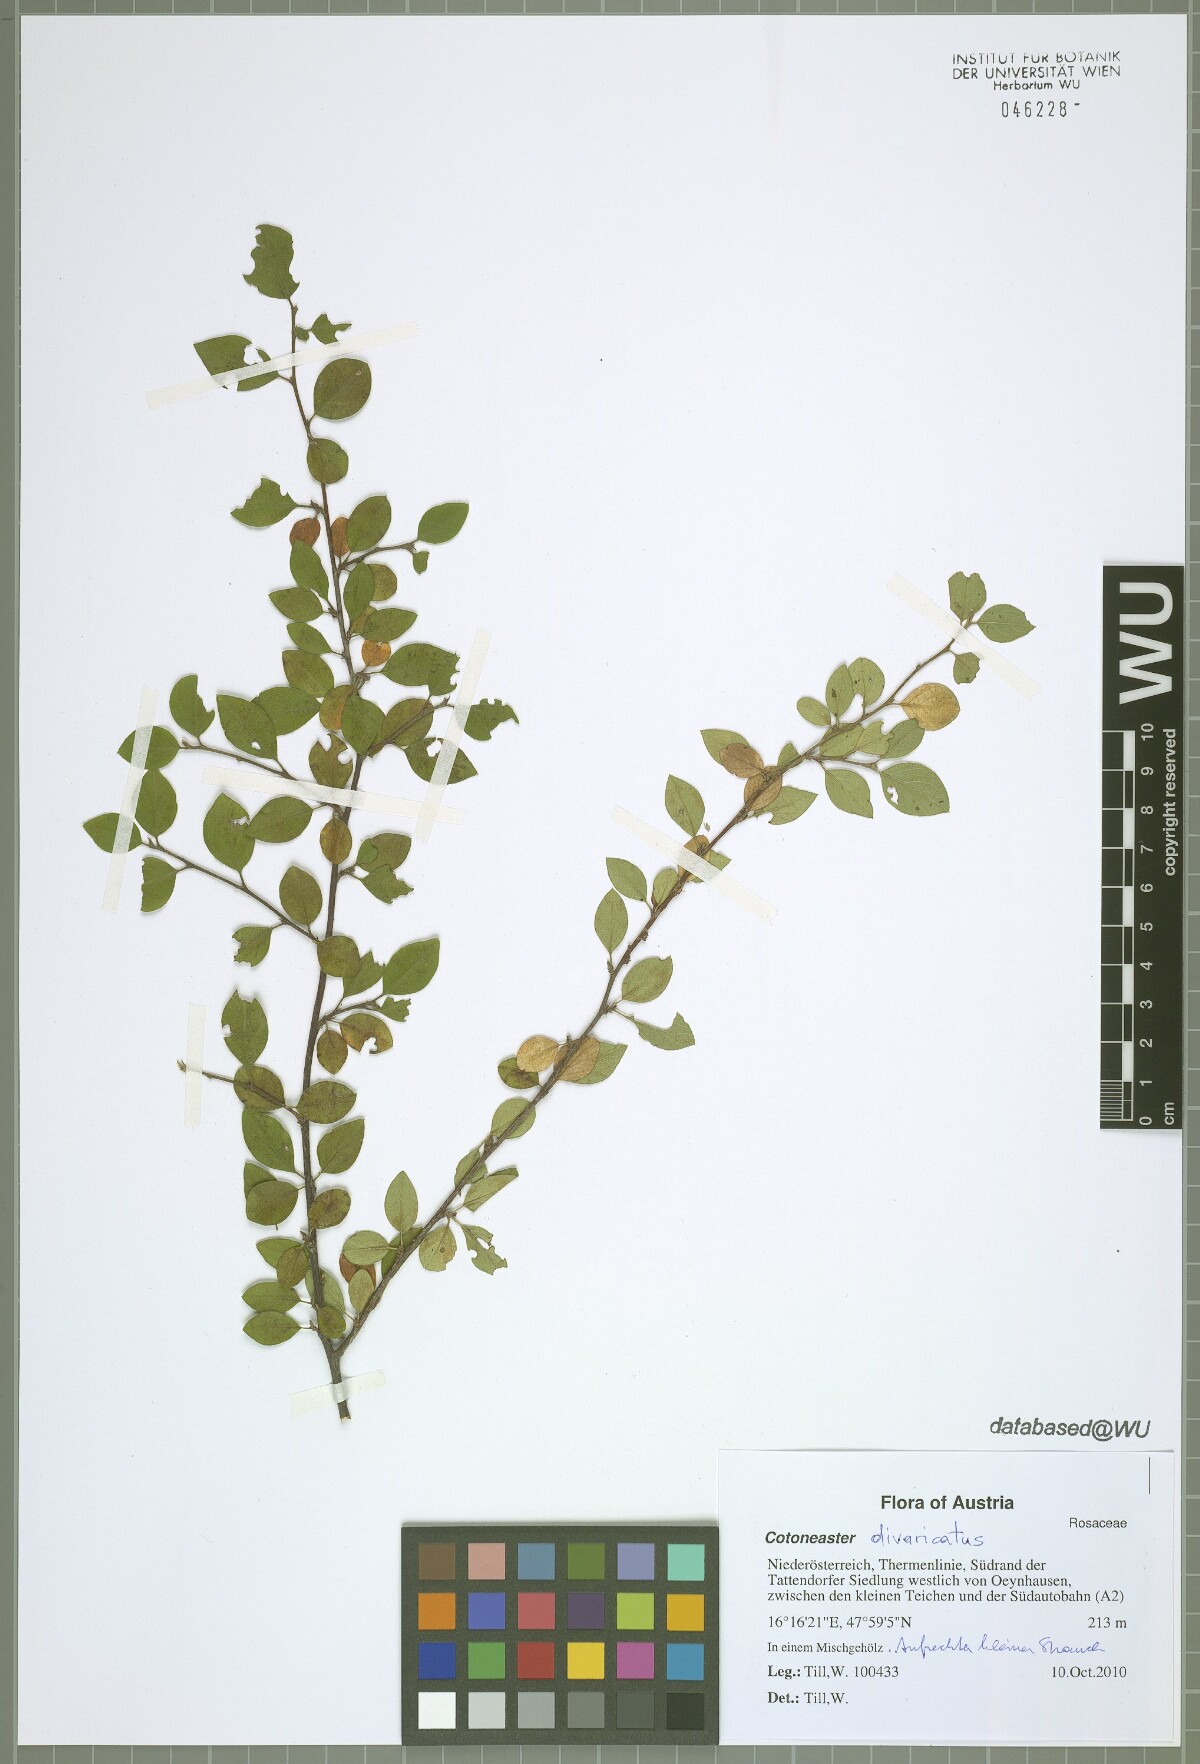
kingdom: Plantae
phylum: Tracheophyta
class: Magnoliopsida
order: Rosales
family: Rosaceae
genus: Cotoneaster
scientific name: Cotoneaster divaricatus
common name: Spreading cotoneaster
